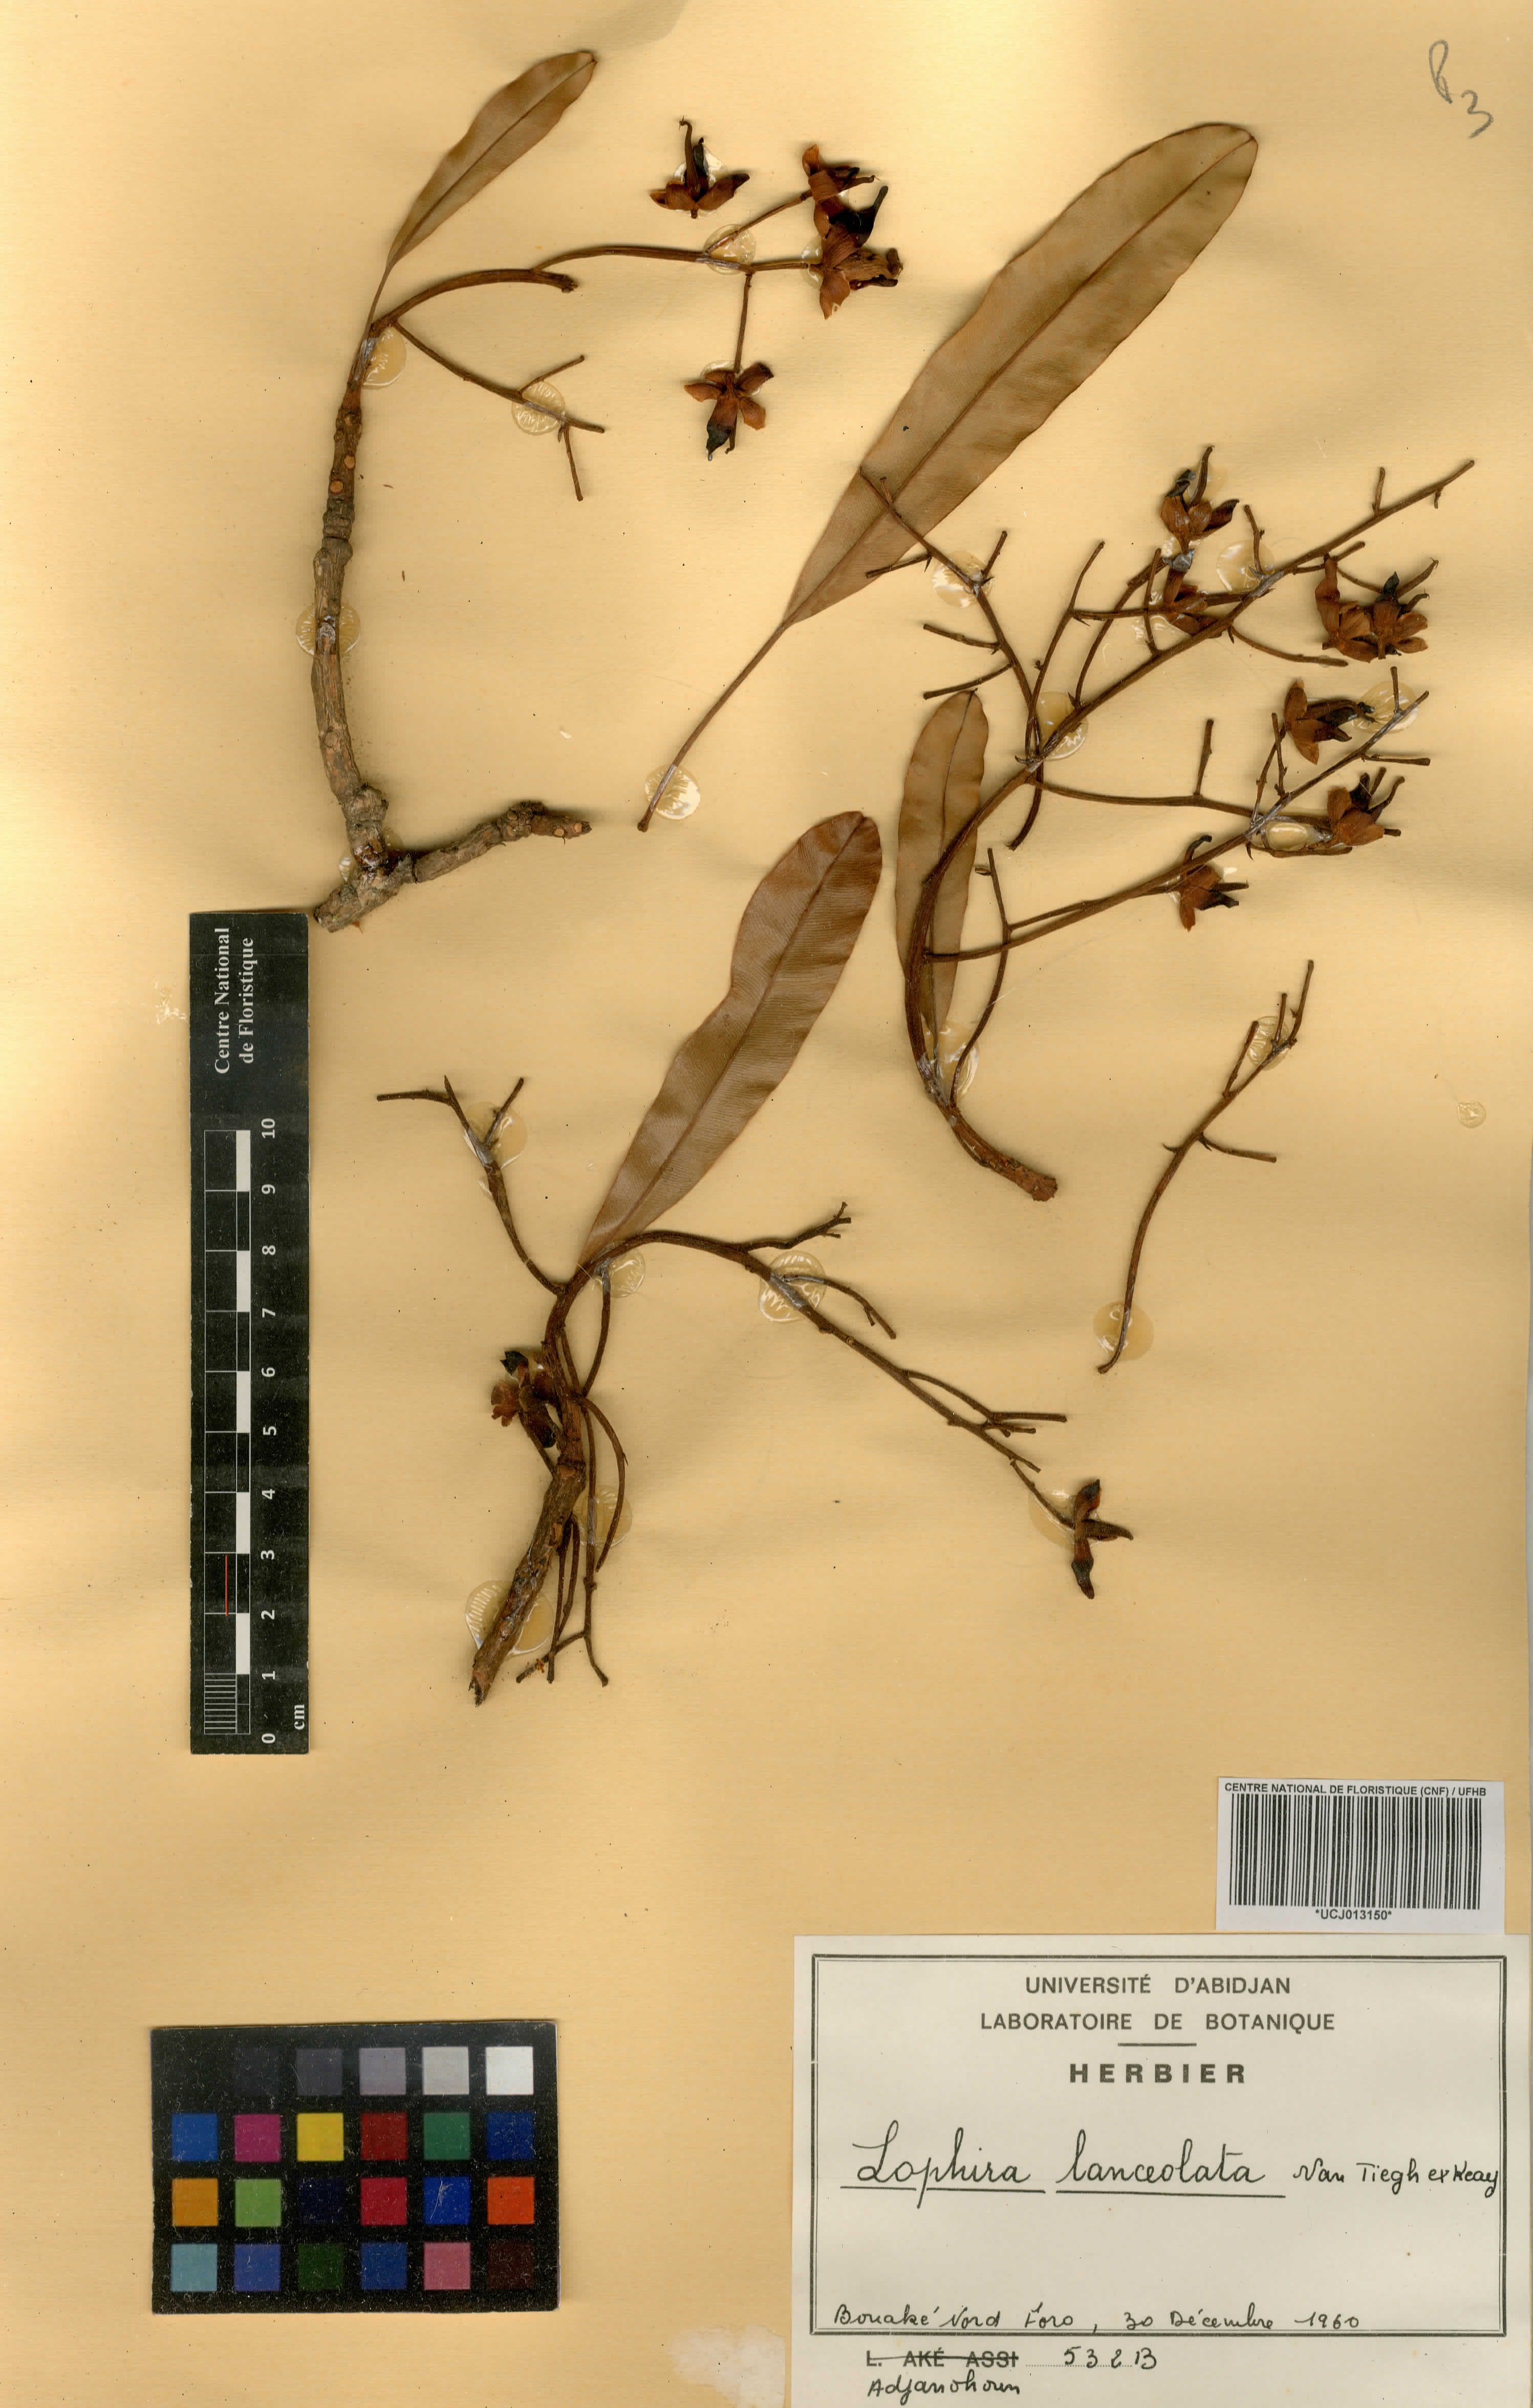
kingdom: Plantae
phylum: Tracheophyta
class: Magnoliopsida
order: Malpighiales
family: Ochnaceae
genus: Lophira
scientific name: Lophira lanceolata
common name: Dwarf red ironwood
